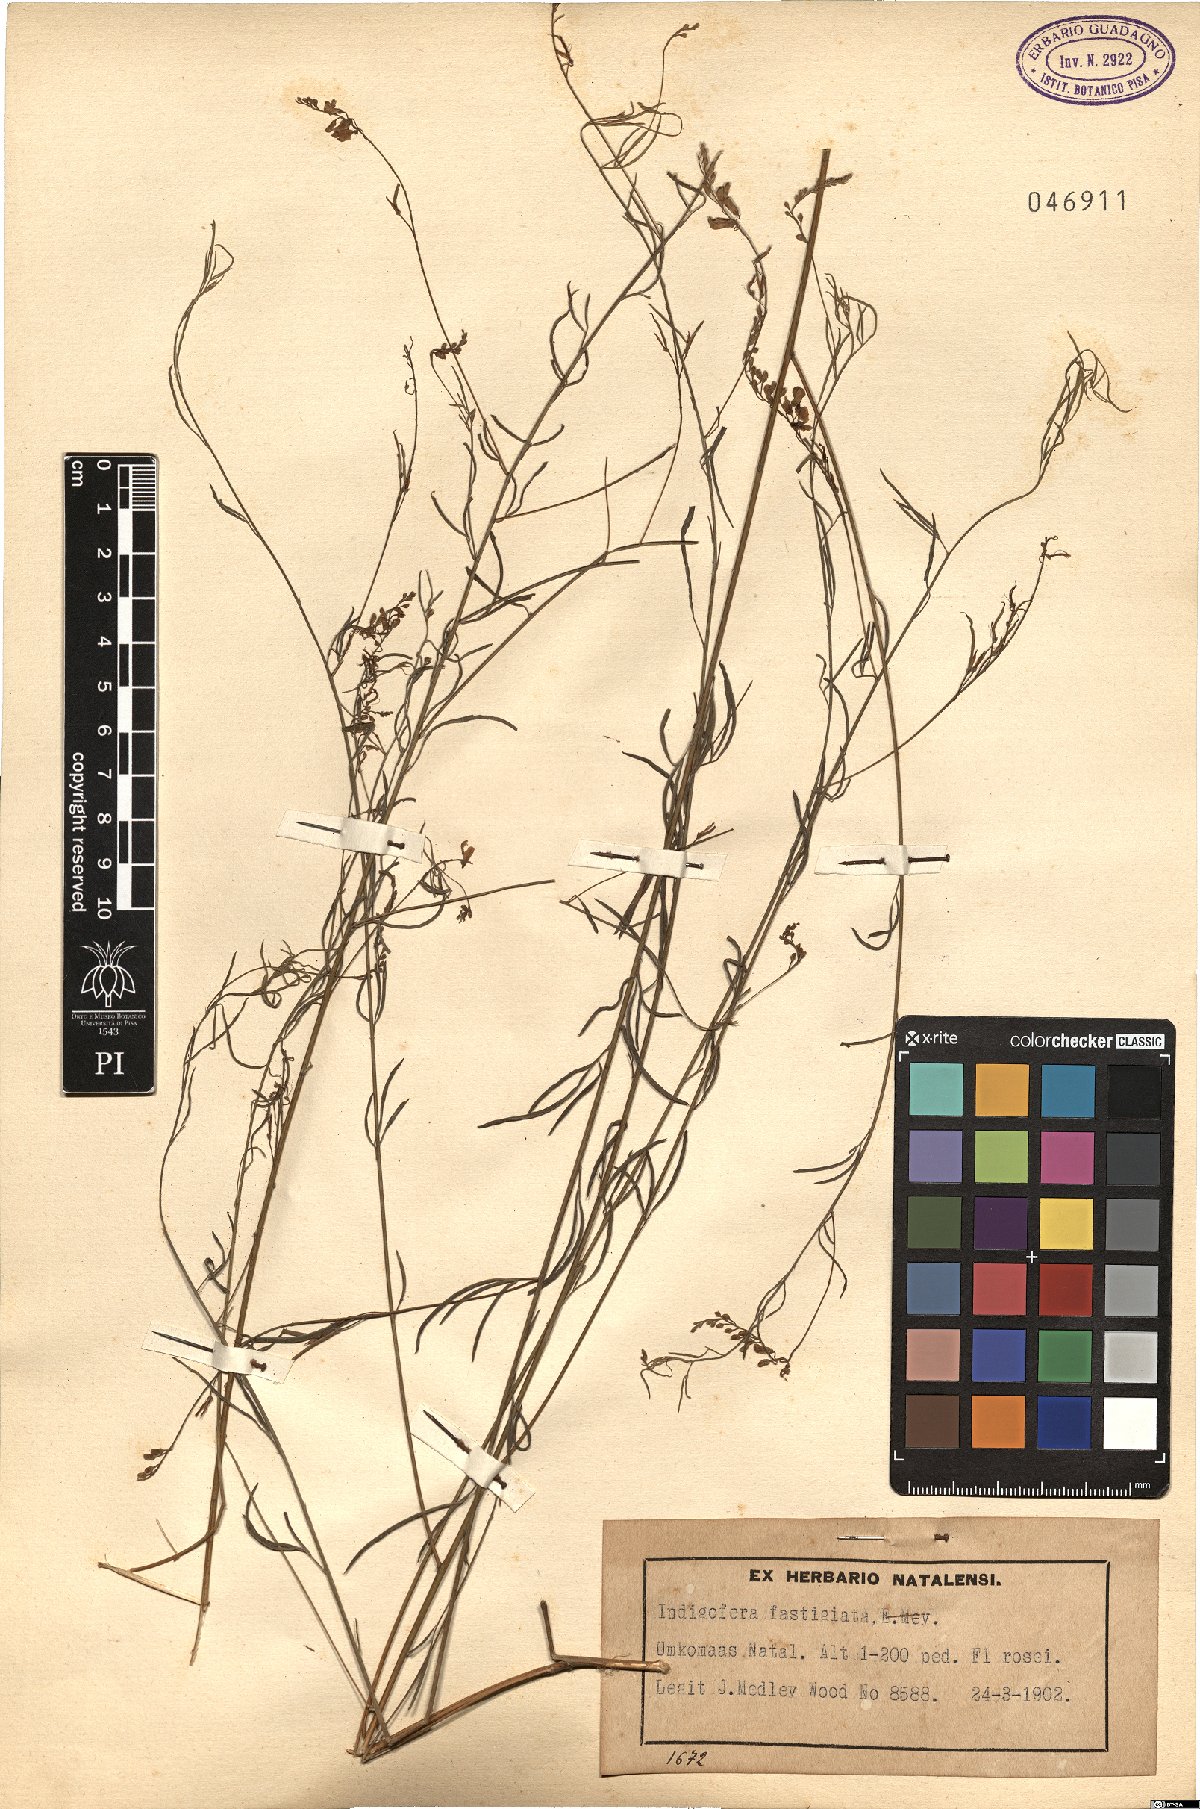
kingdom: Plantae
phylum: Tracheophyta
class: Magnoliopsida
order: Fabales
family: Fabaceae
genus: Indigastrum
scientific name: Indigastrum fastigiatum
